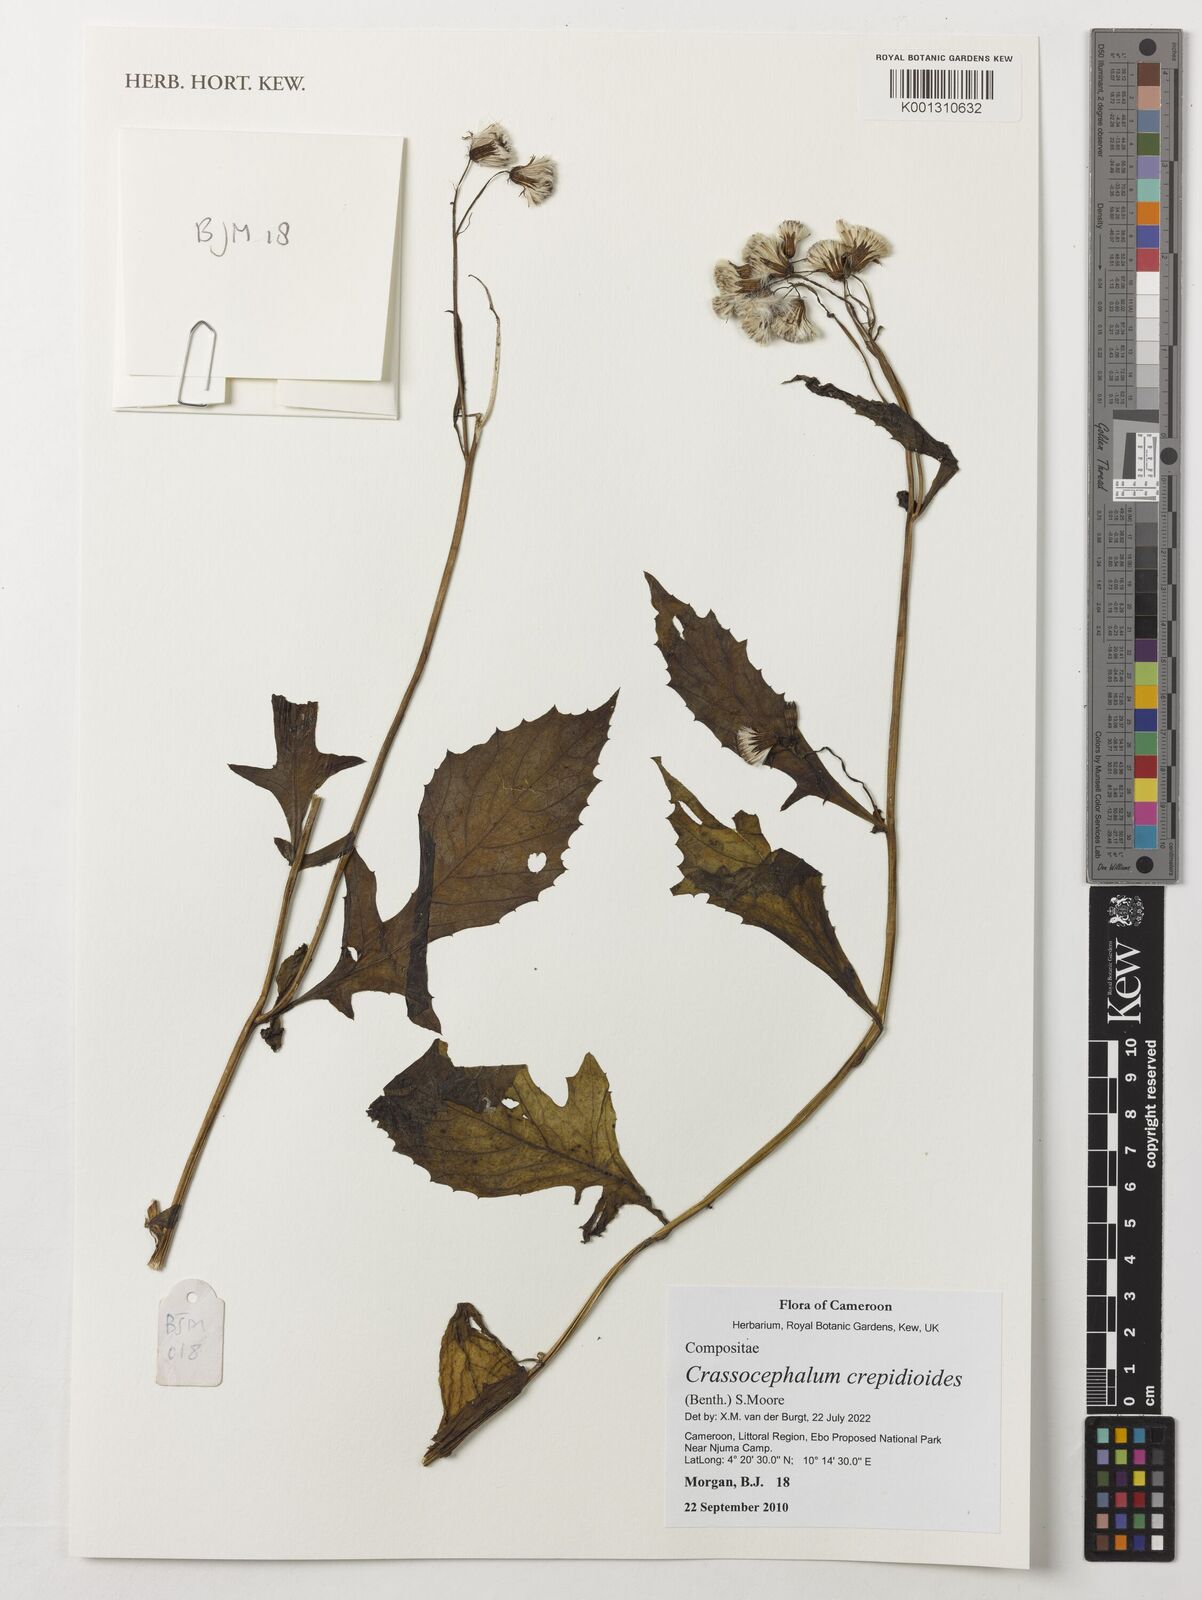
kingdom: Plantae
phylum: Tracheophyta
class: Magnoliopsida
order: Asterales
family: Asteraceae
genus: Crassocephalum
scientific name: Crassocephalum crepidioides
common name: Redflower ragleaf
